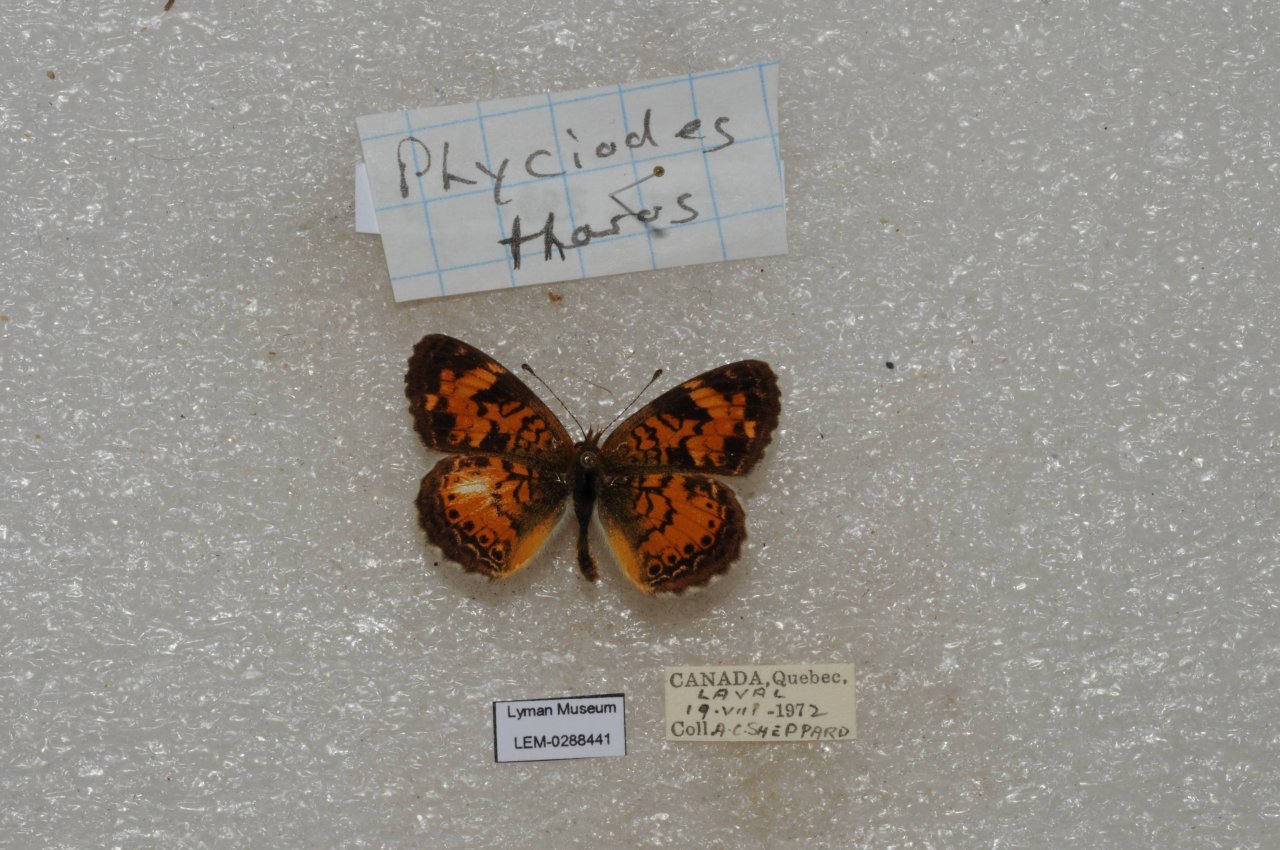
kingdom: Animalia
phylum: Arthropoda
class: Insecta
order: Lepidoptera
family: Nymphalidae
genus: Phyciodes
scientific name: Phyciodes tharos
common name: Pearl Crescent
